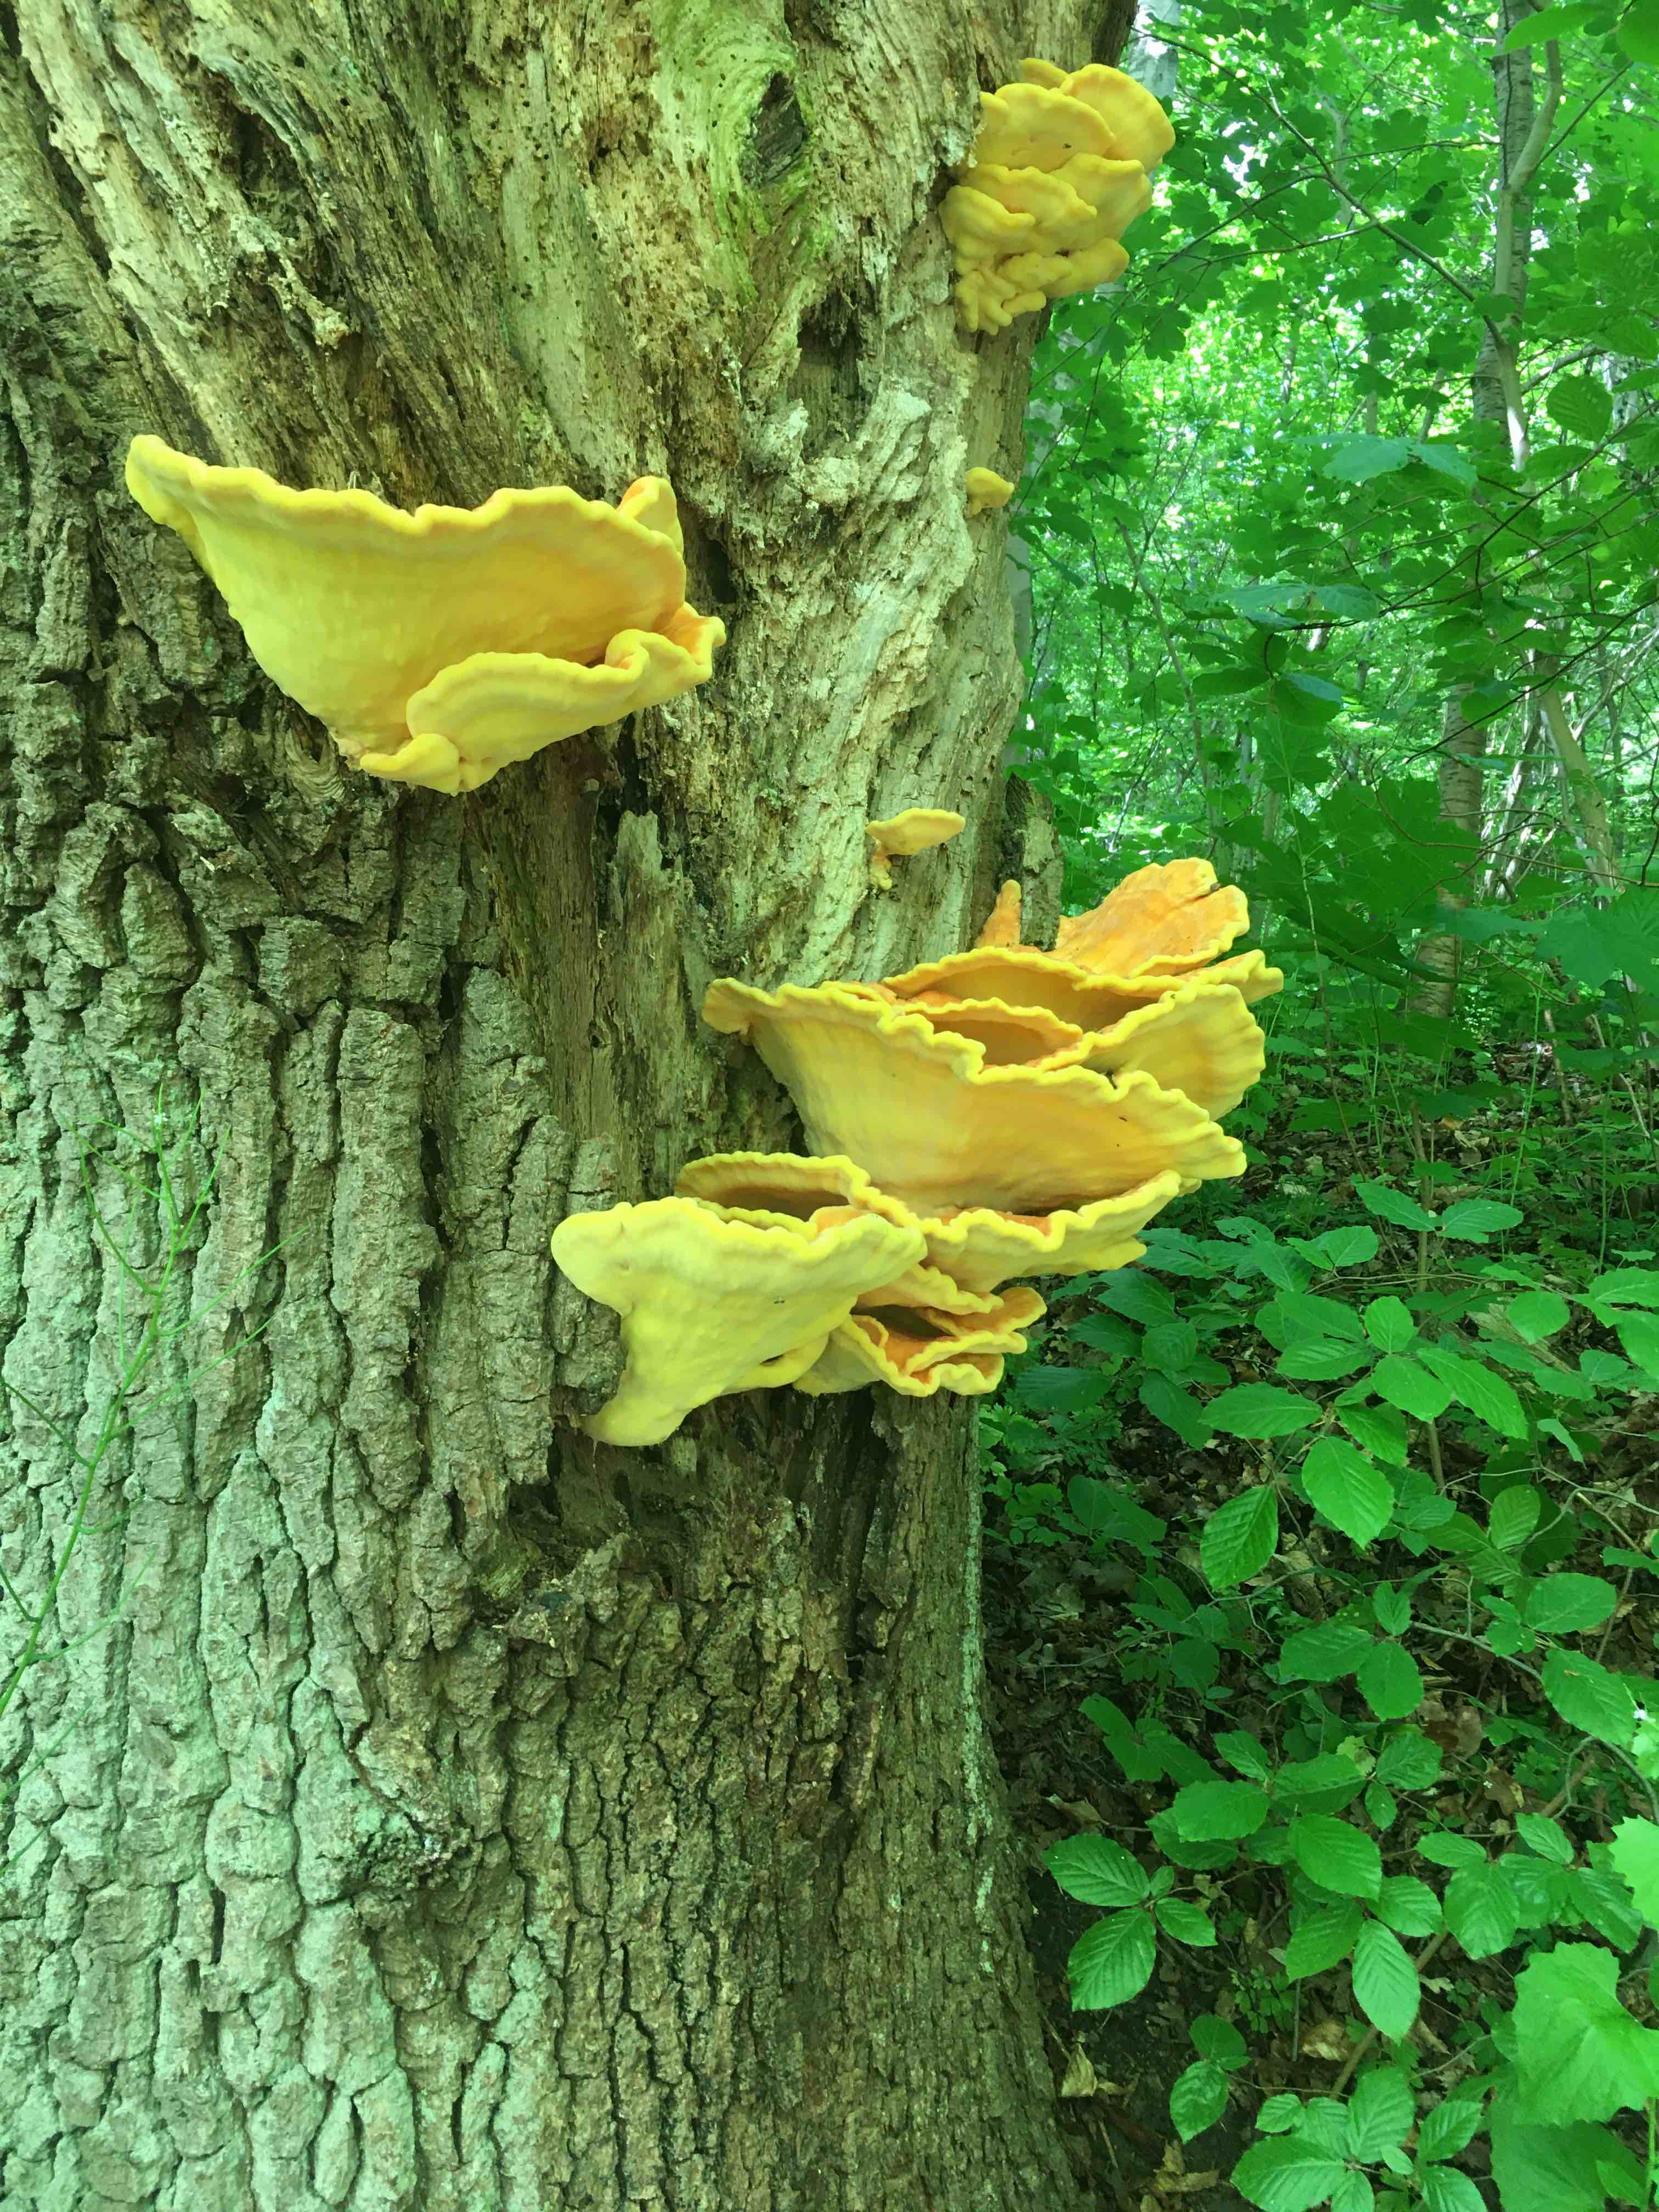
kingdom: Fungi
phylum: Basidiomycota
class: Agaricomycetes
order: Polyporales
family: Laetiporaceae
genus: Laetiporus
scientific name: Laetiporus sulphureus
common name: svovlporesvamp
